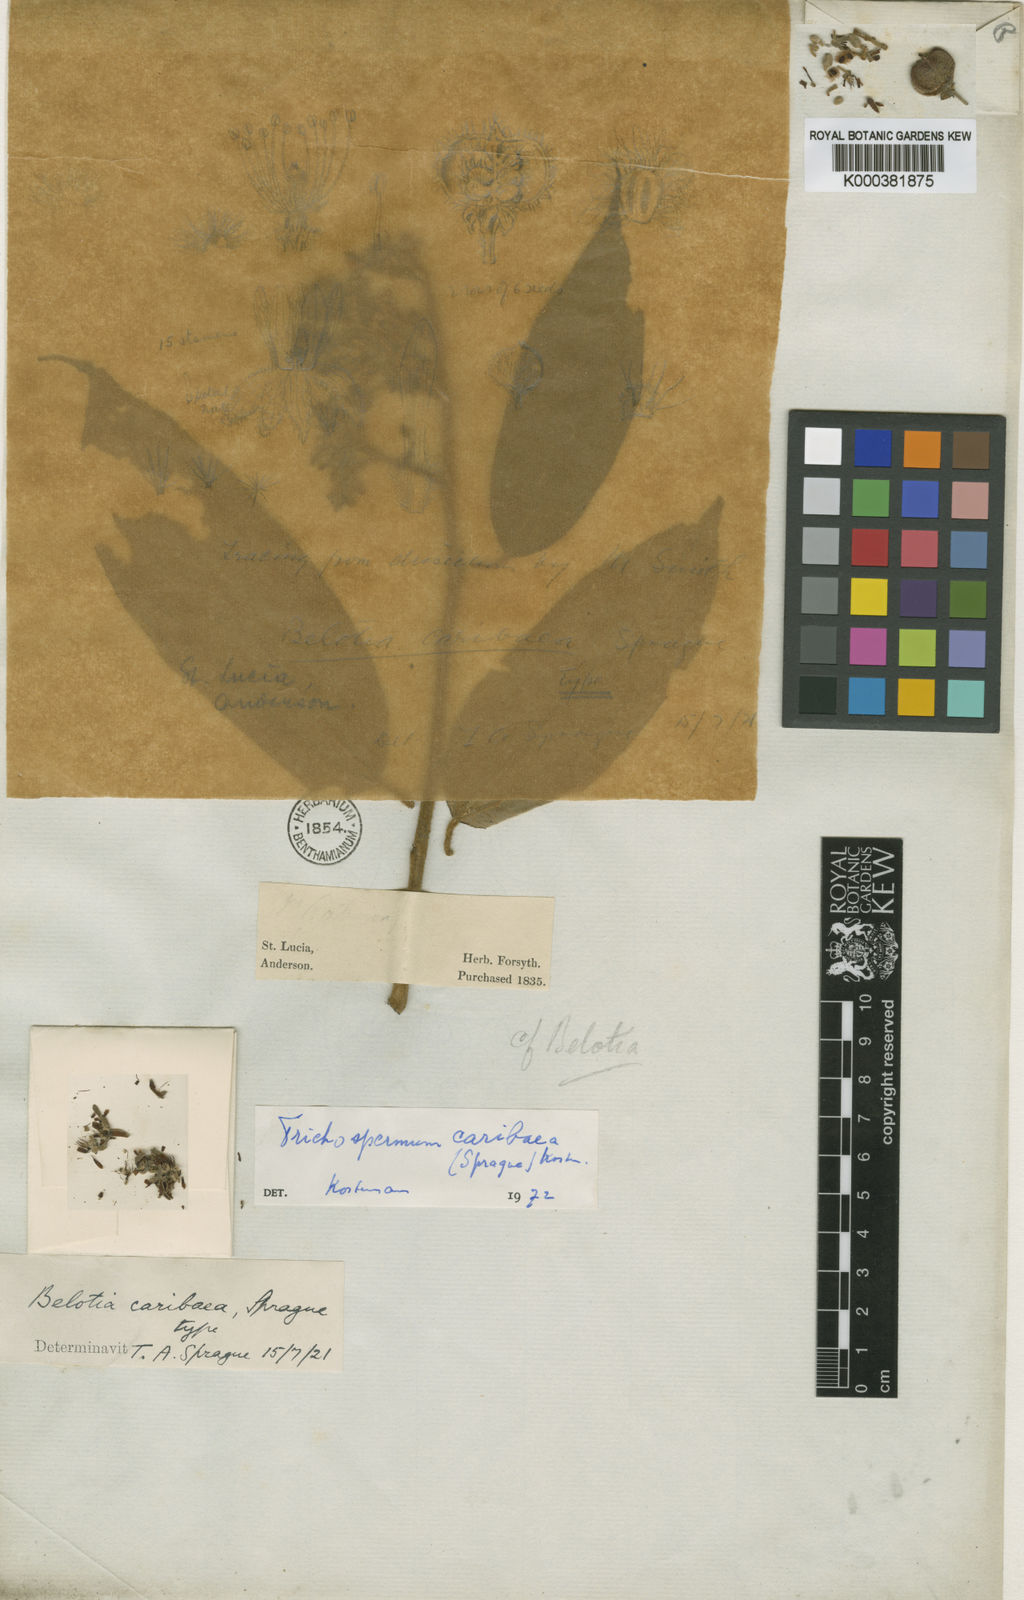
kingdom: Plantae
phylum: Tracheophyta
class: Magnoliopsida
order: Malvales
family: Malvaceae
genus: Trichospermum
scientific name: Trichospermum
